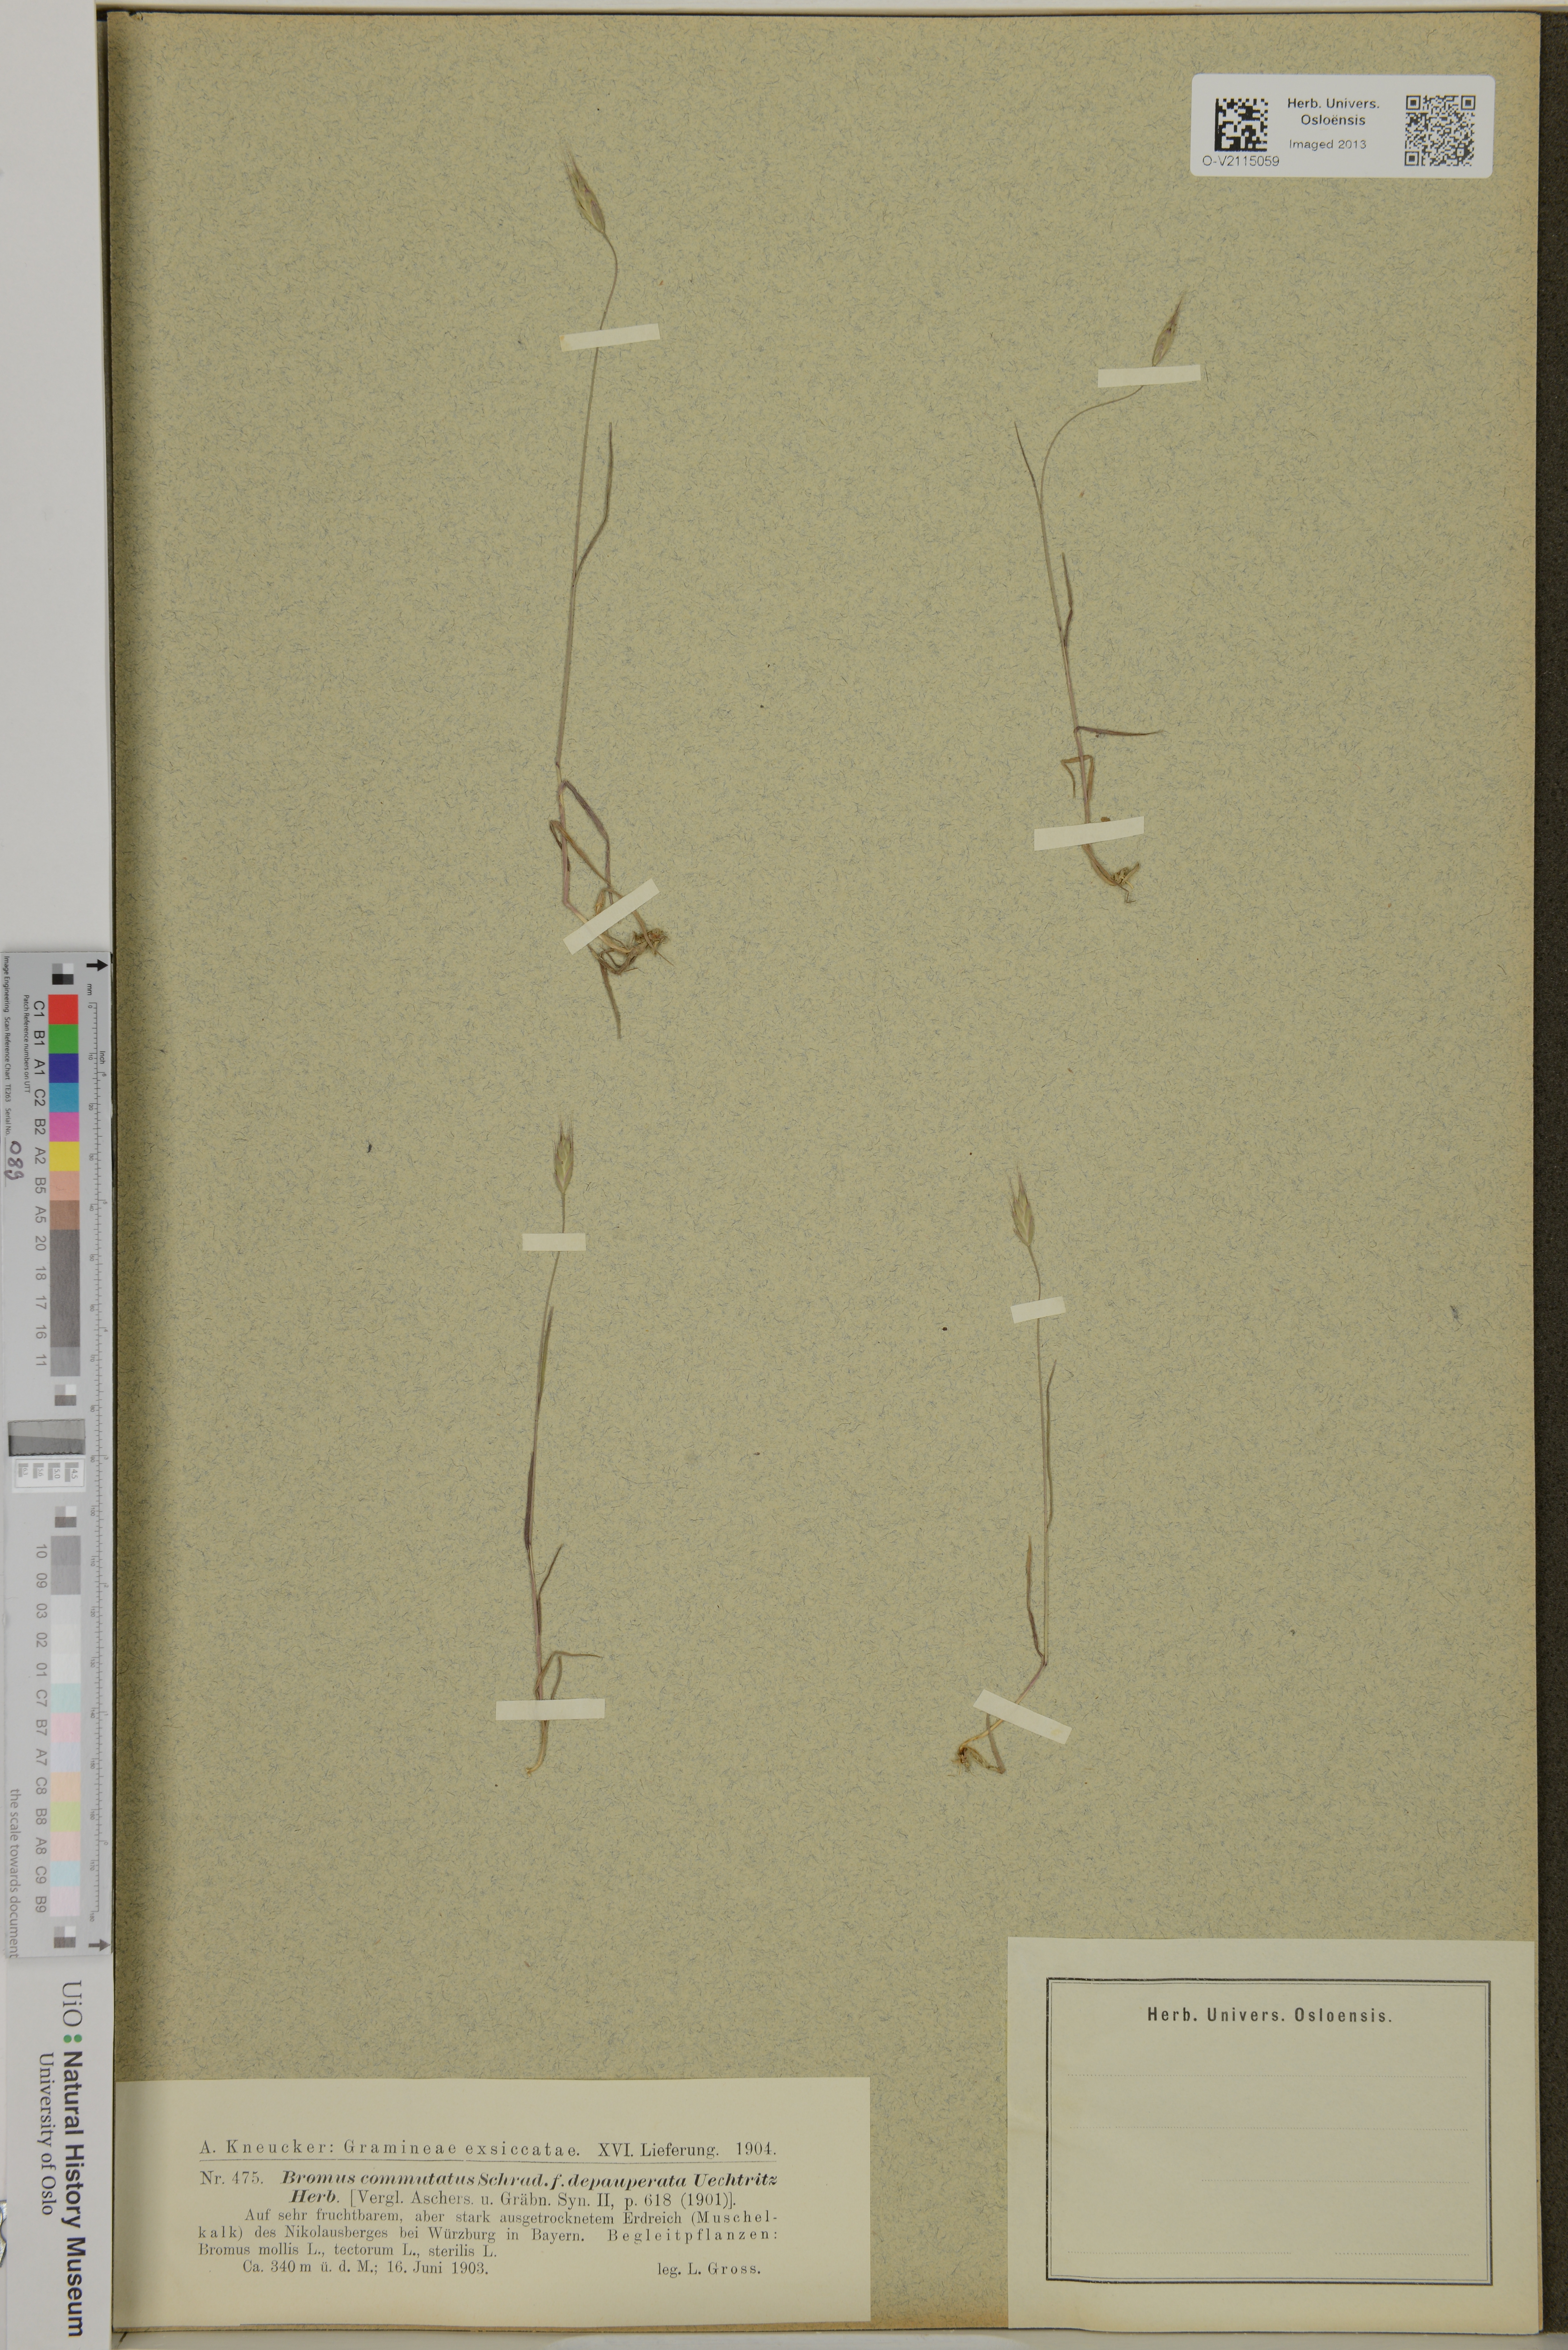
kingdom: Plantae
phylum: Tracheophyta
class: Liliopsida
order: Poales
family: Poaceae
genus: Bromus
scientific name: Bromus commutatus
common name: Meadow brome
